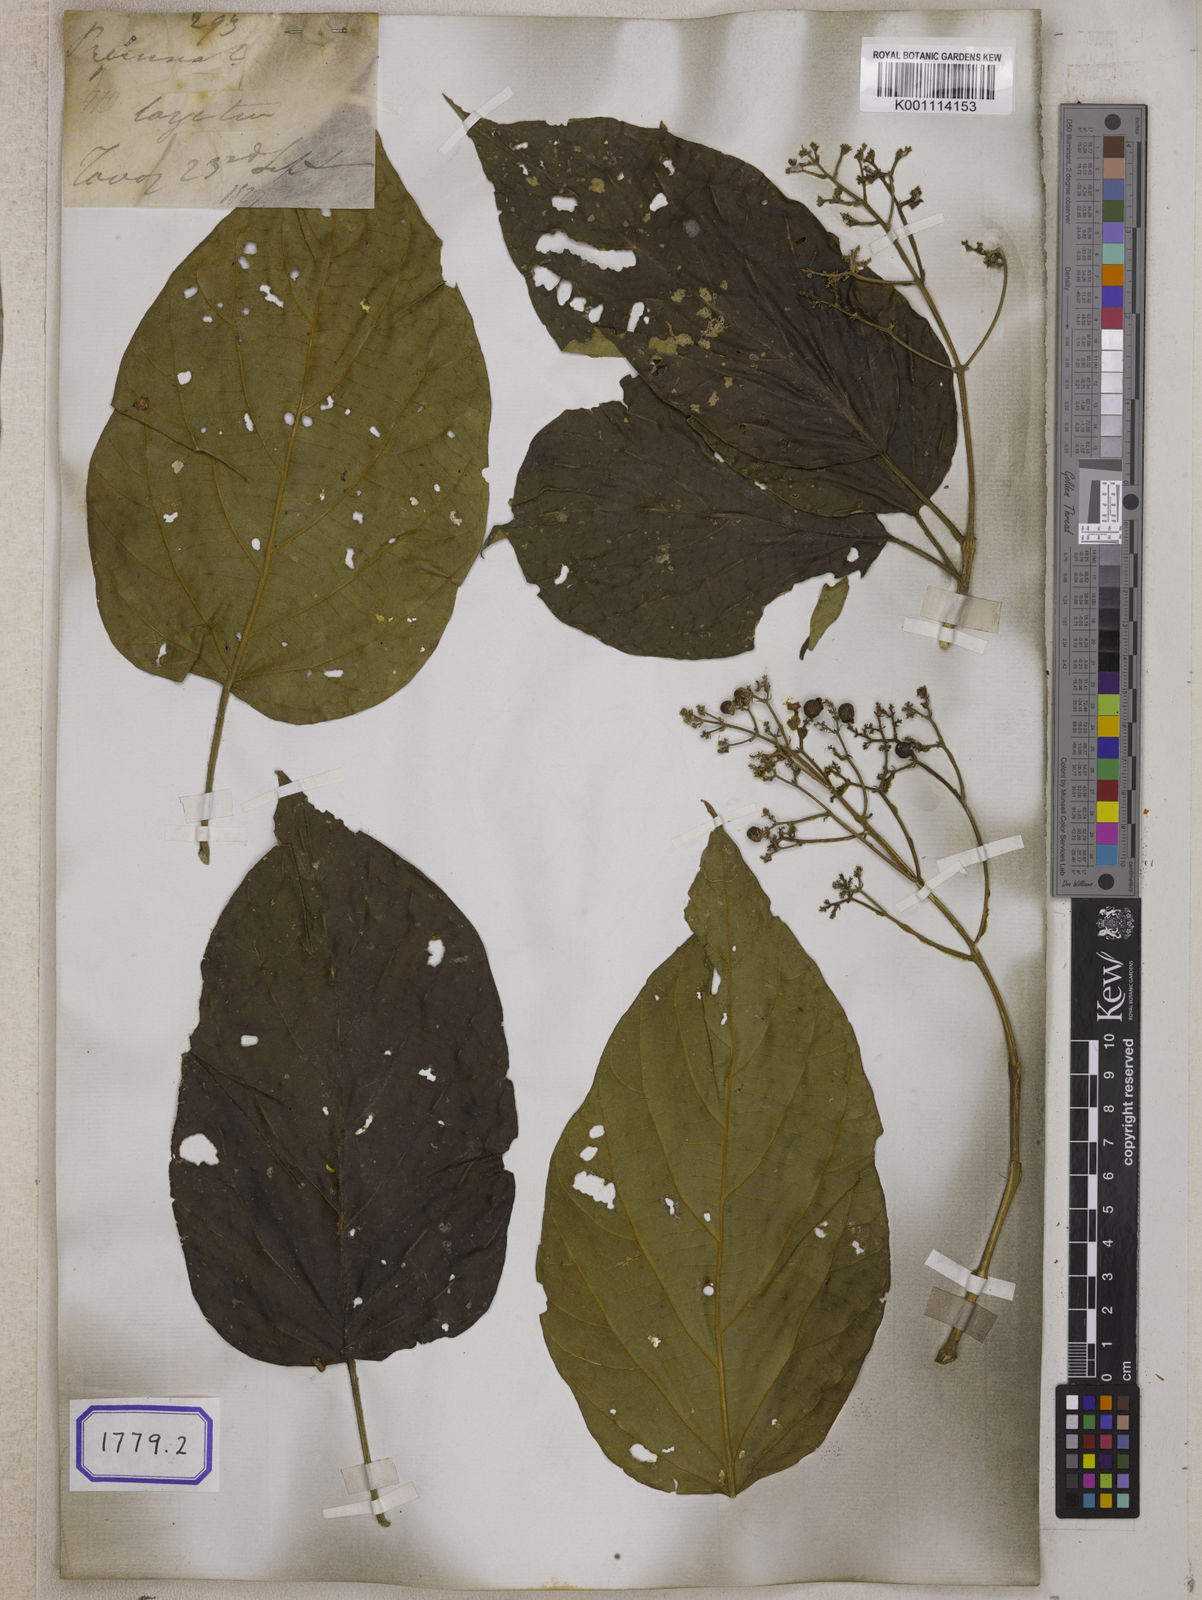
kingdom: Plantae
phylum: Tracheophyta
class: Magnoliopsida
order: Lamiales
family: Lamiaceae
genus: Premna
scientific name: Premna
